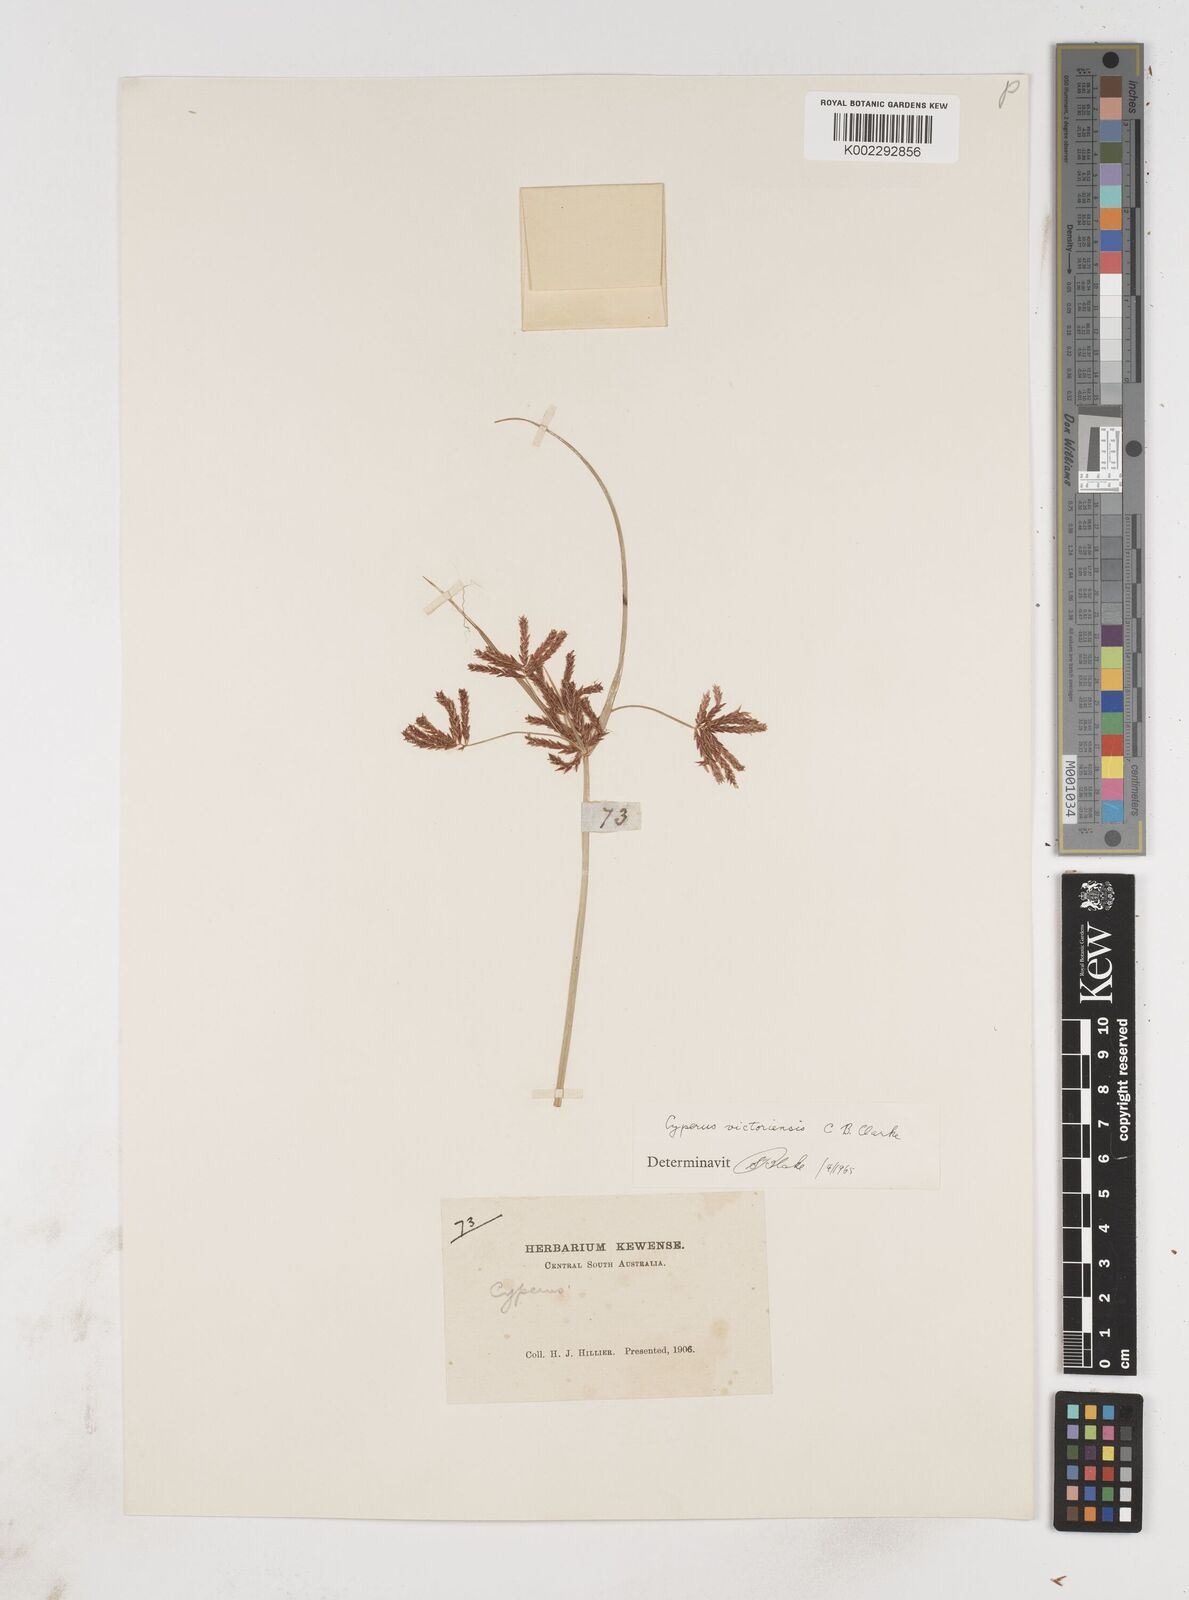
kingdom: Plantae
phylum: Tracheophyta
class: Liliopsida
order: Poales
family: Cyperaceae
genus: Cyperus
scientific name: Cyperus victoriensis
